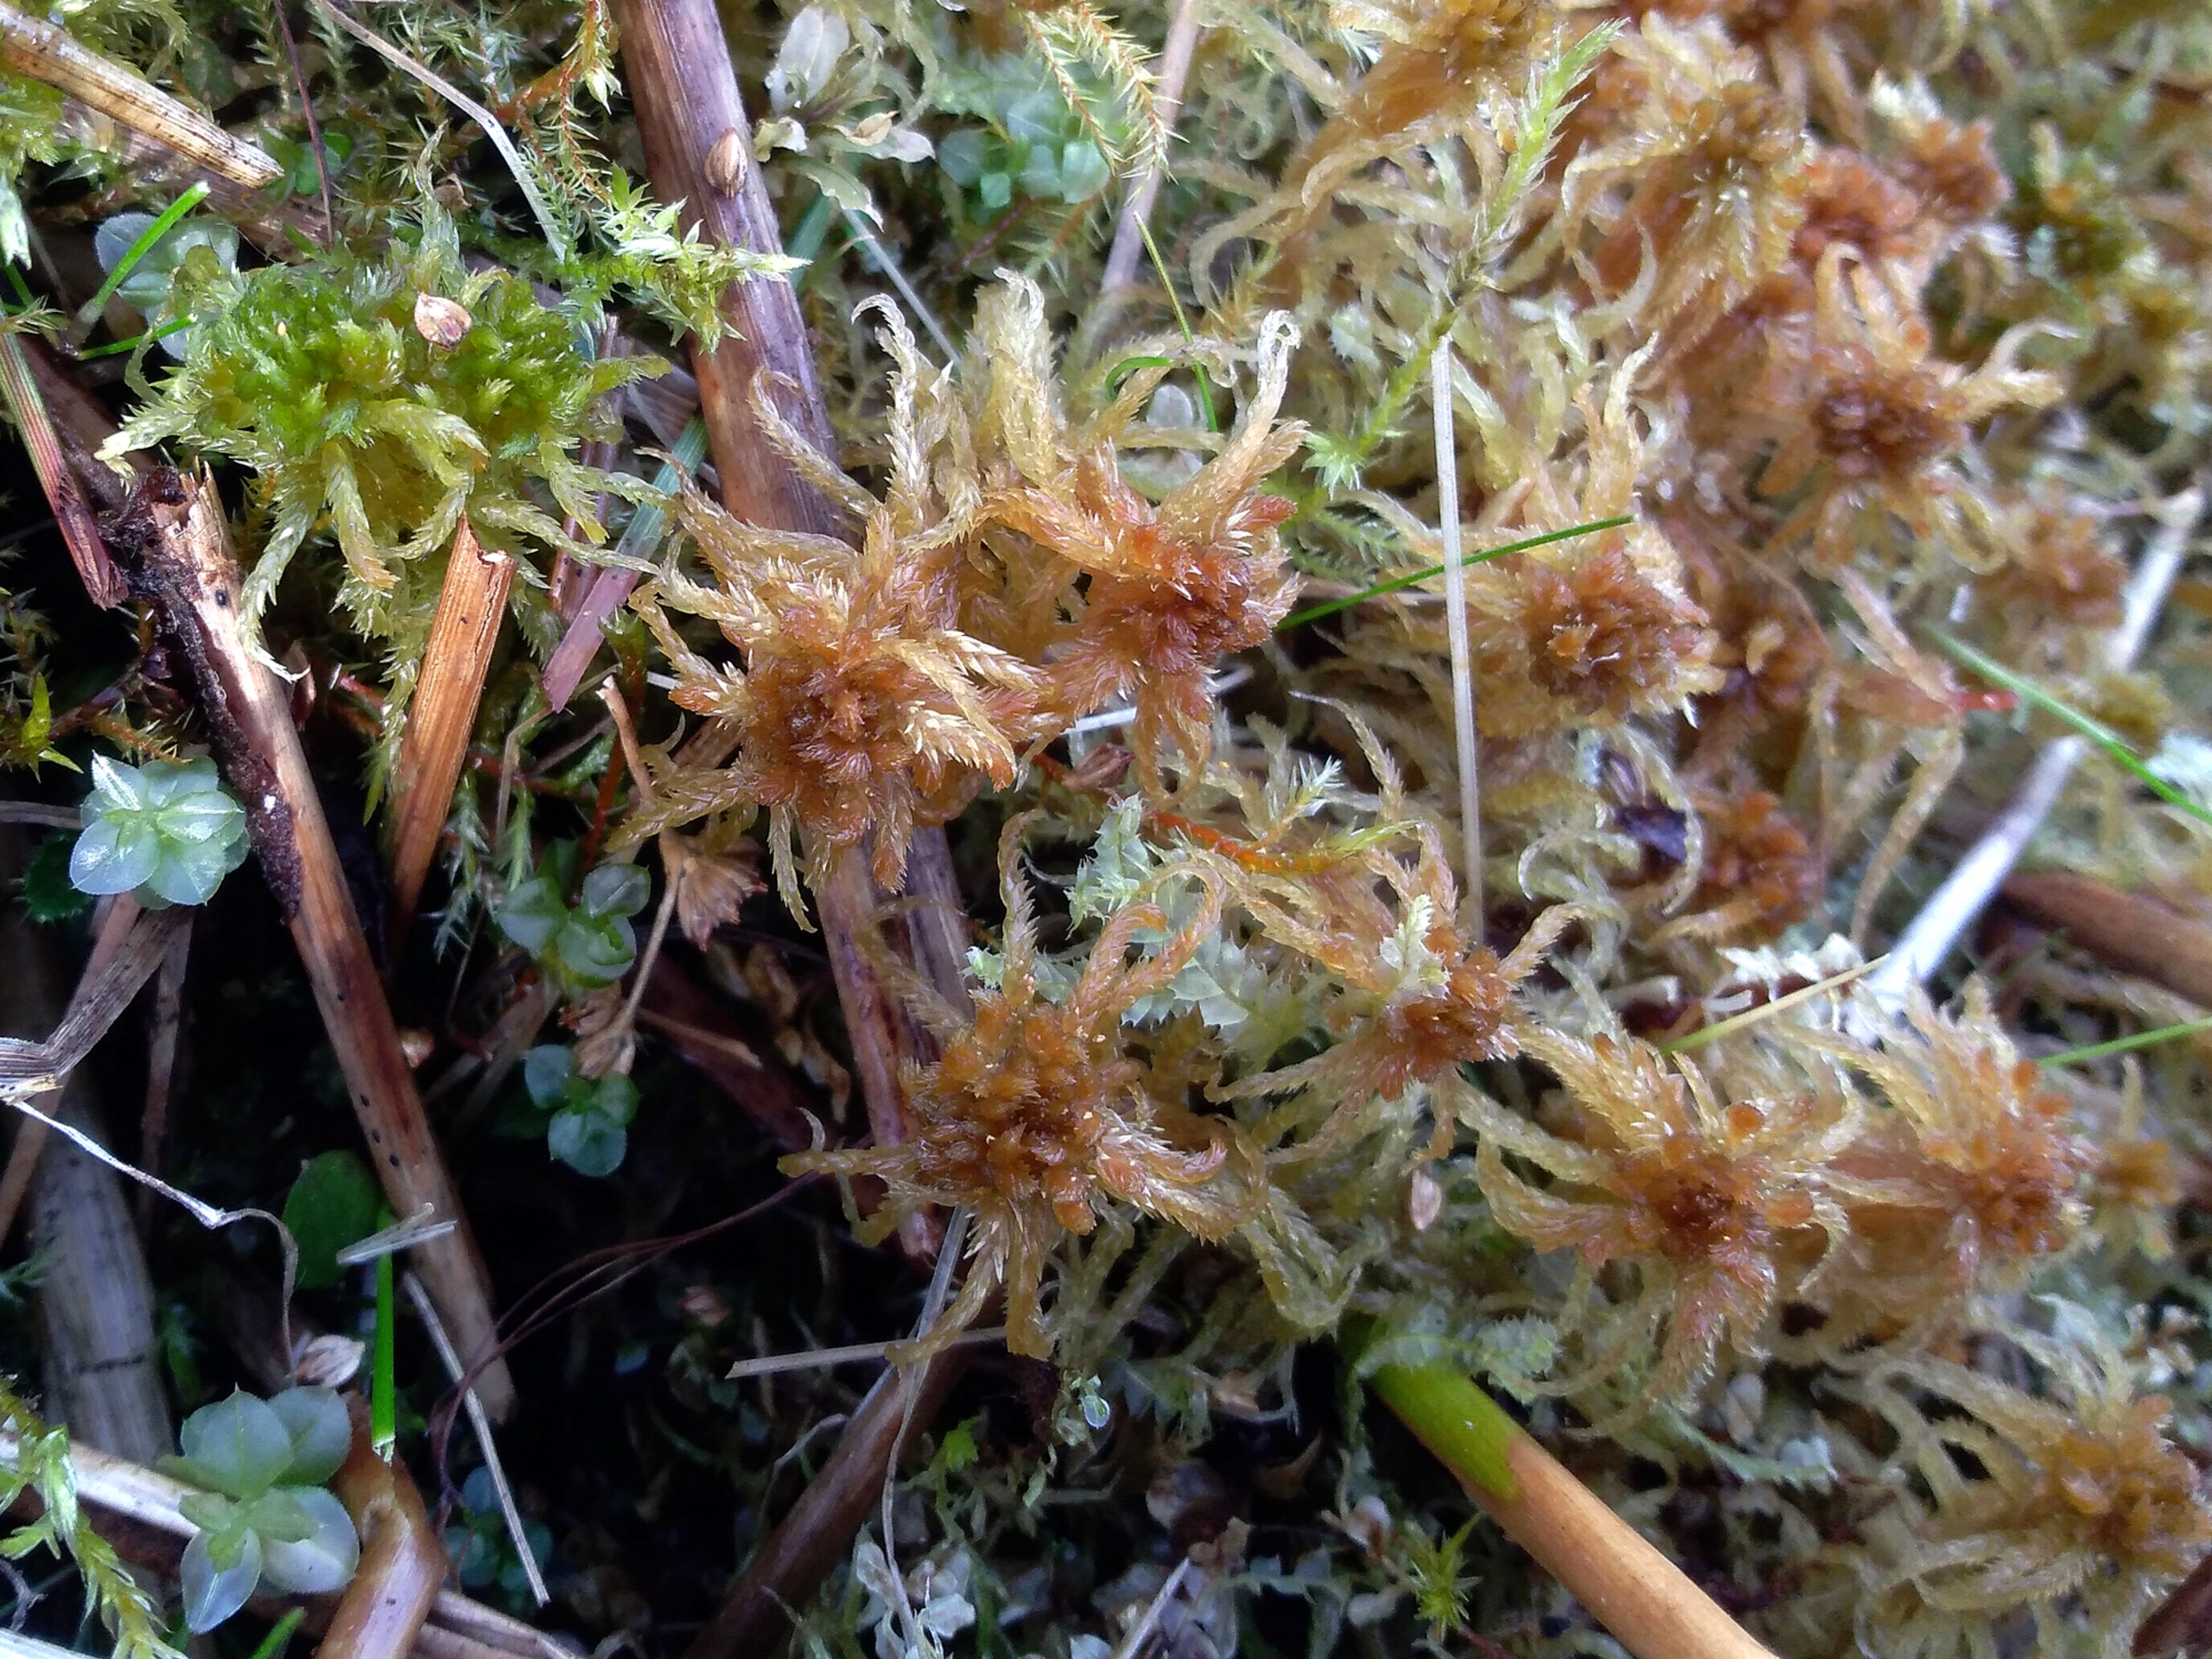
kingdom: Plantae
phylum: Bryophyta
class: Sphagnopsida
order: Sphagnales
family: Sphagnaceae
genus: Sphagnum
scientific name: Sphagnum contortum
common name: Krumbladet tørvemos
